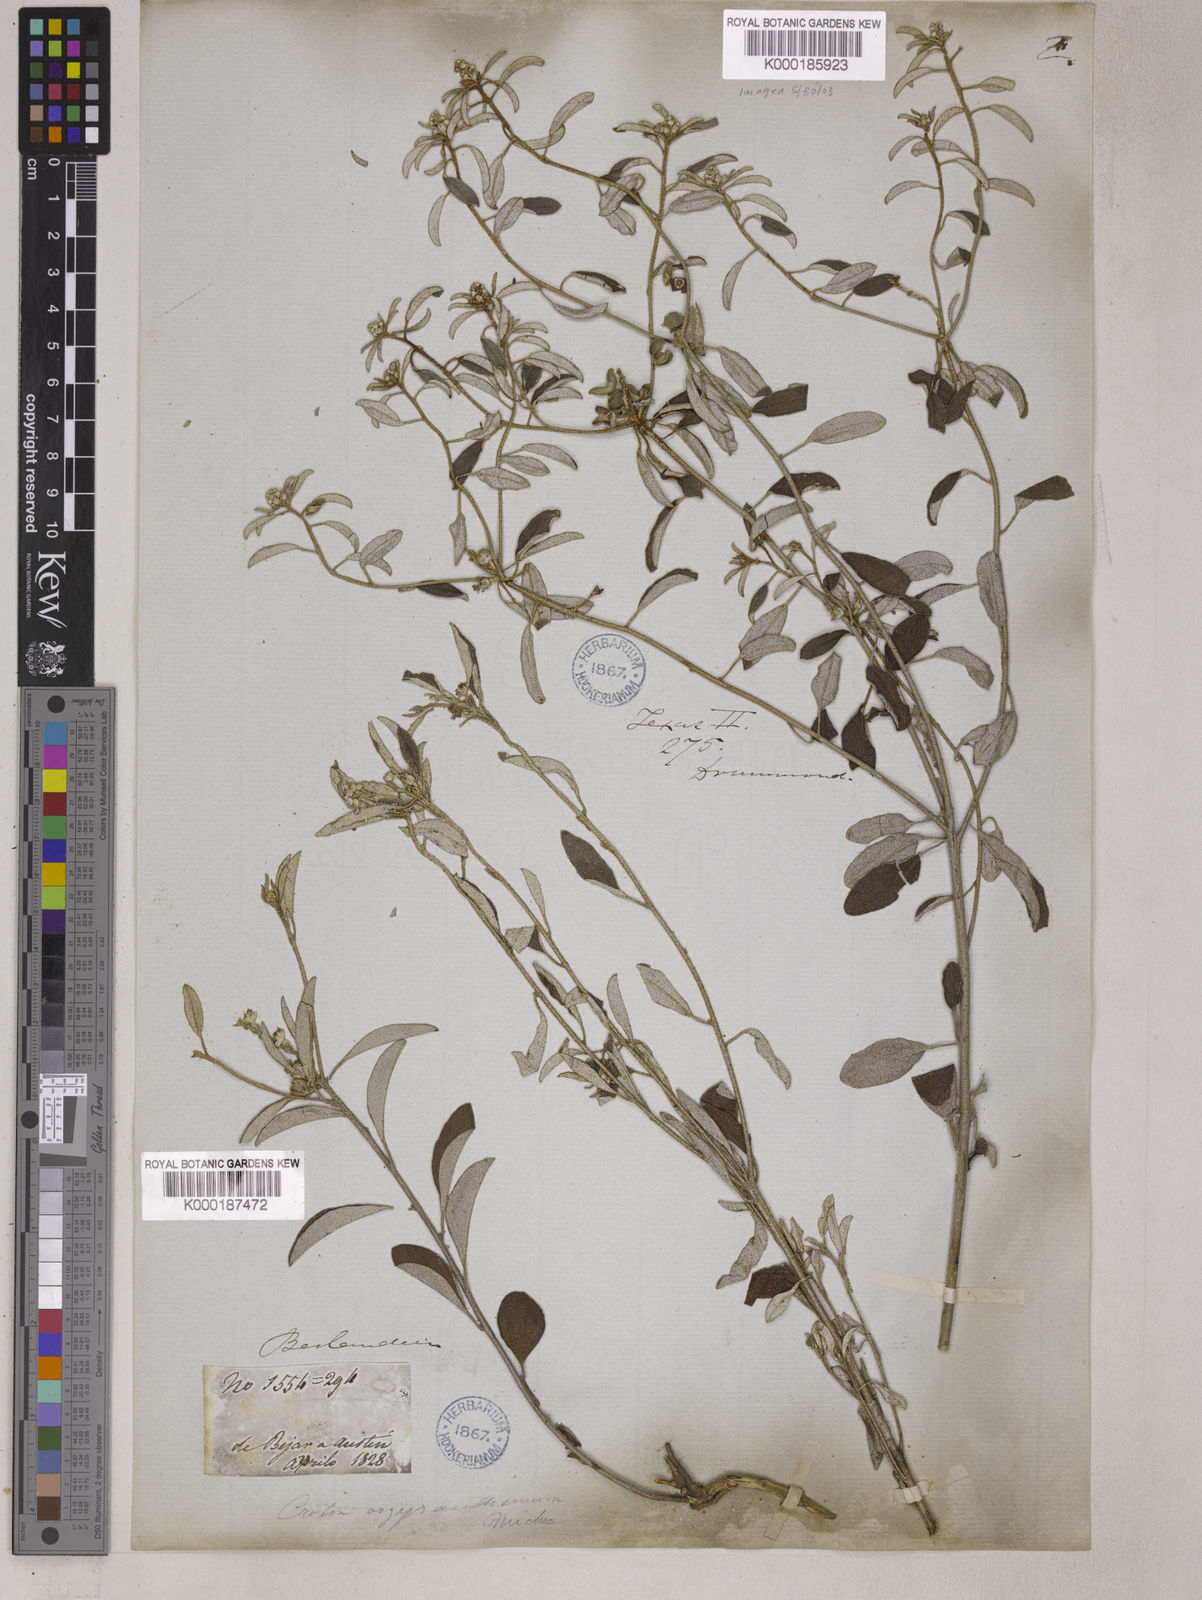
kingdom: Plantae
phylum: Tracheophyta
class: Magnoliopsida
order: Malpighiales
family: Euphorbiaceae
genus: Croton
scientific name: Croton argyranthemus
